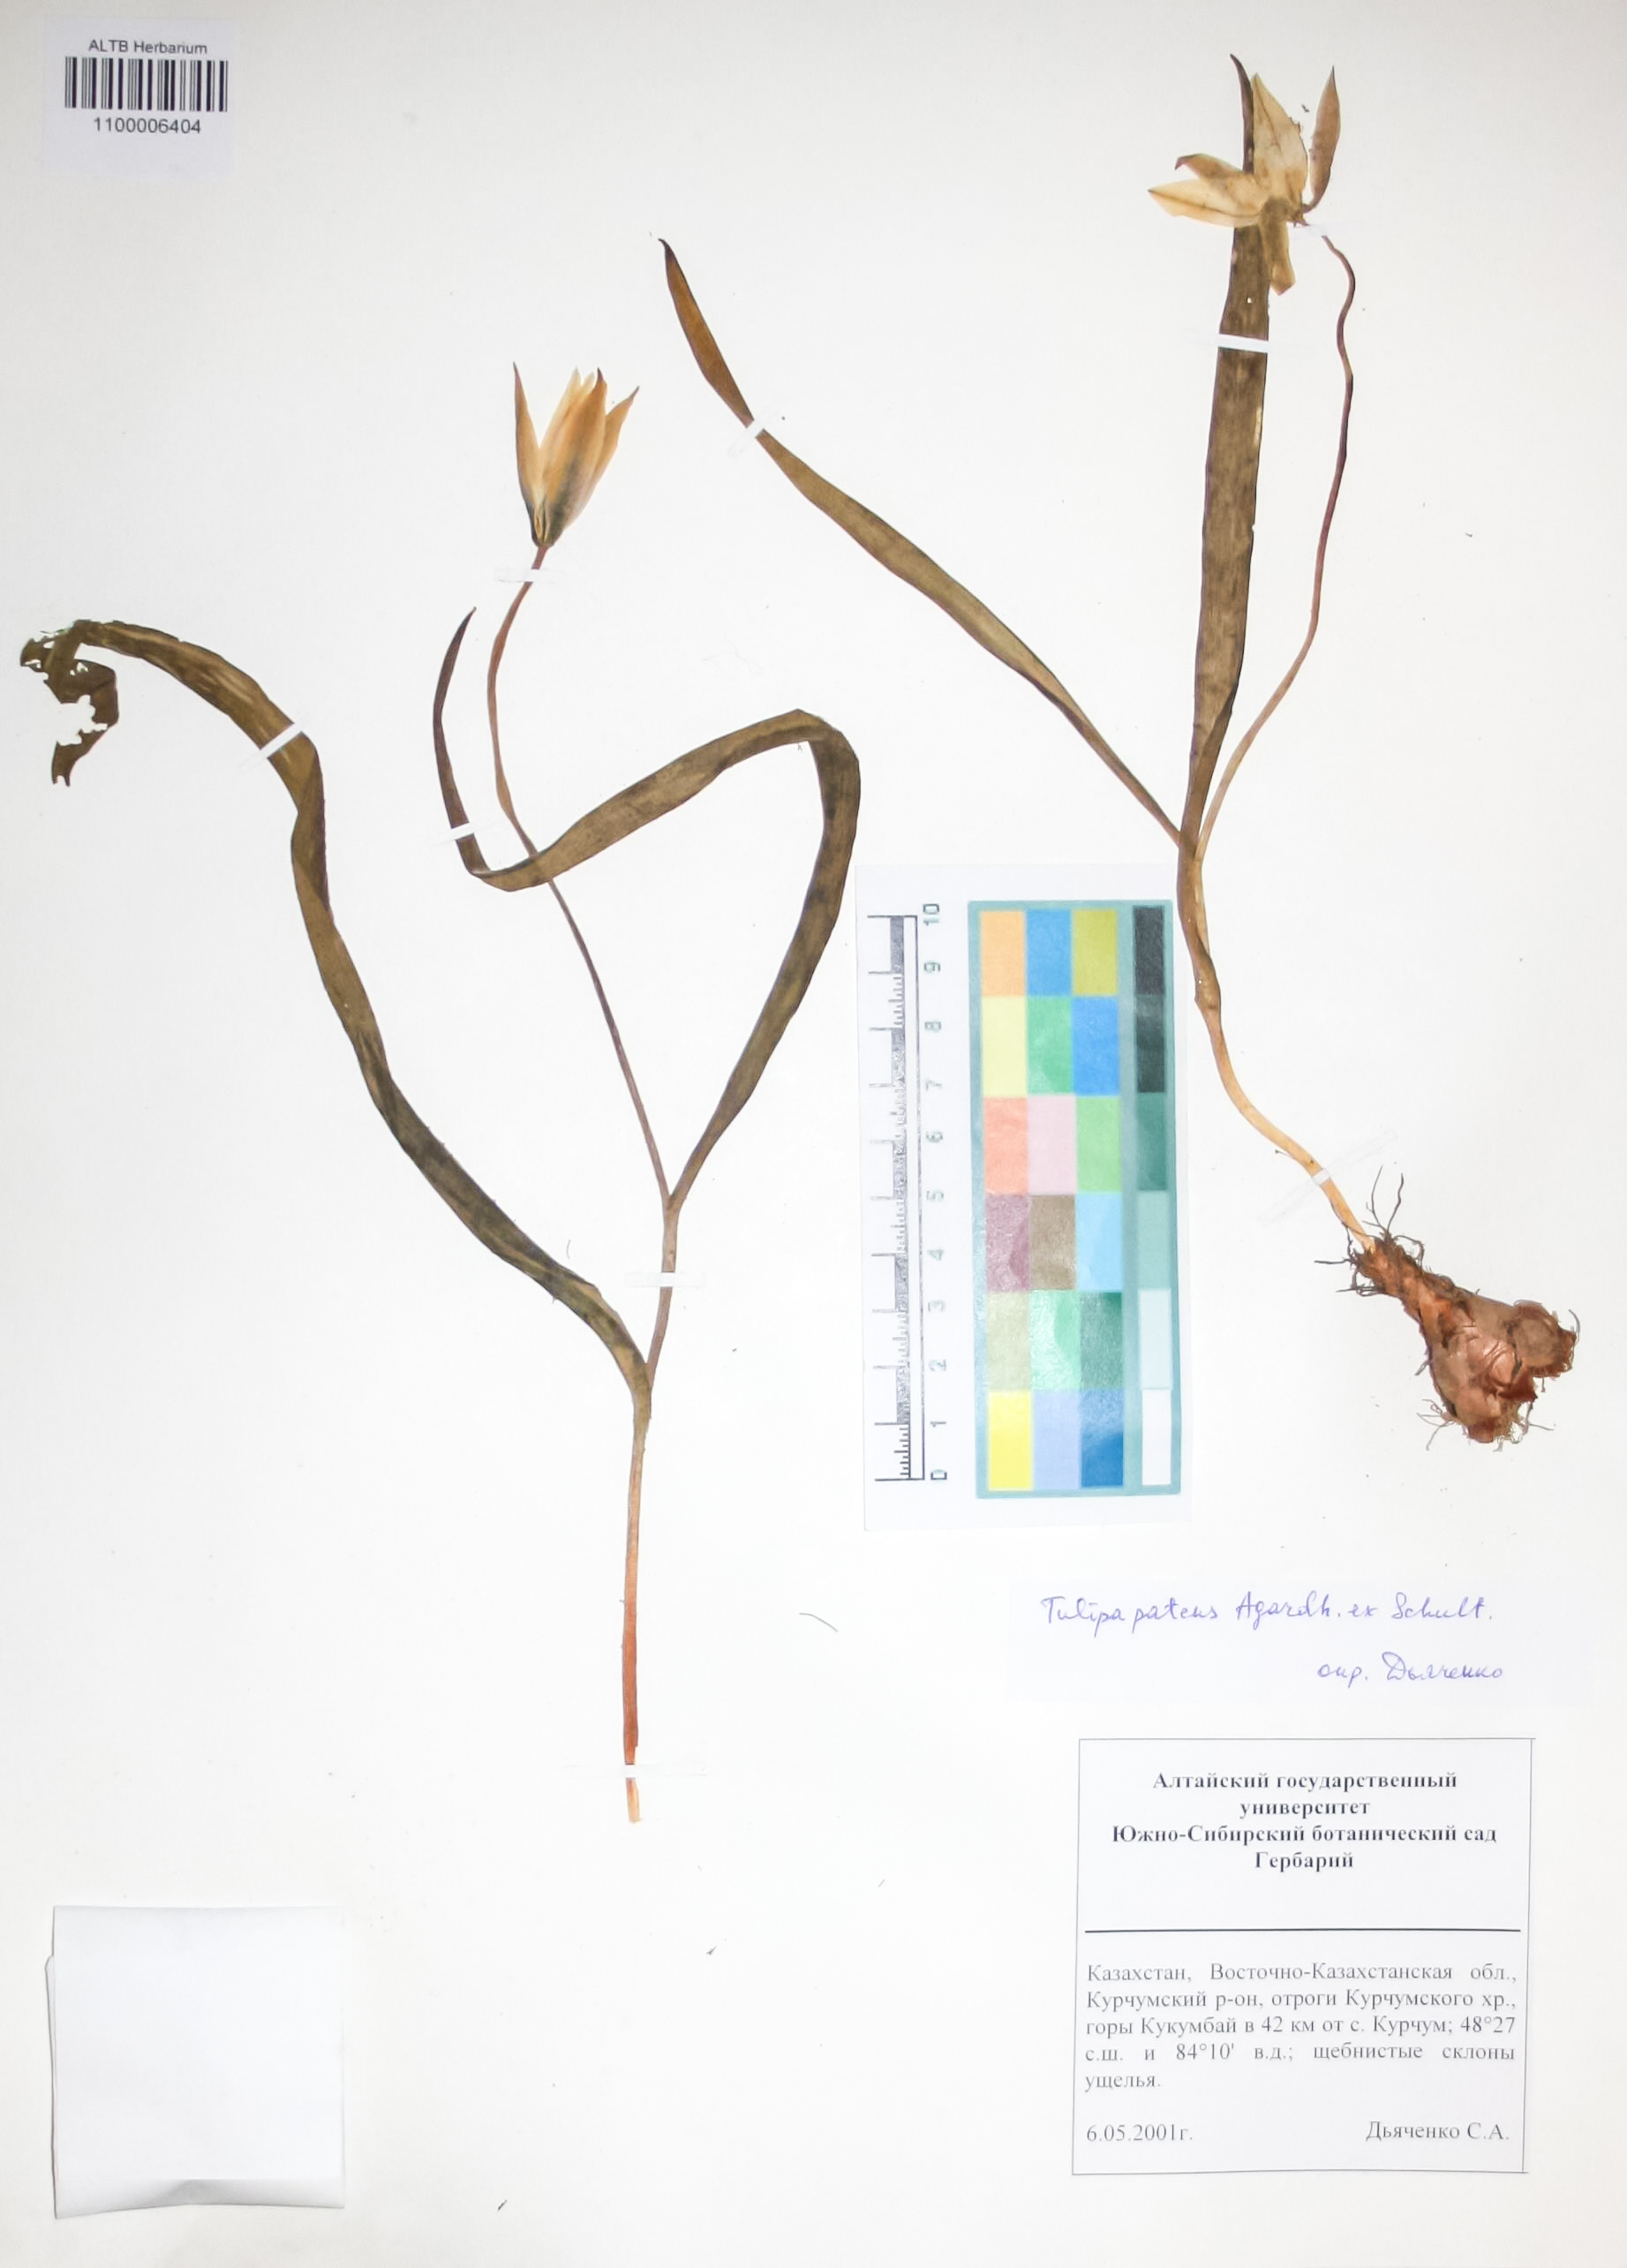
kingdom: Plantae
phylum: Tracheophyta
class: Liliopsida
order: Liliales
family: Liliaceae
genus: Tulipa
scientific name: Tulipa patens
